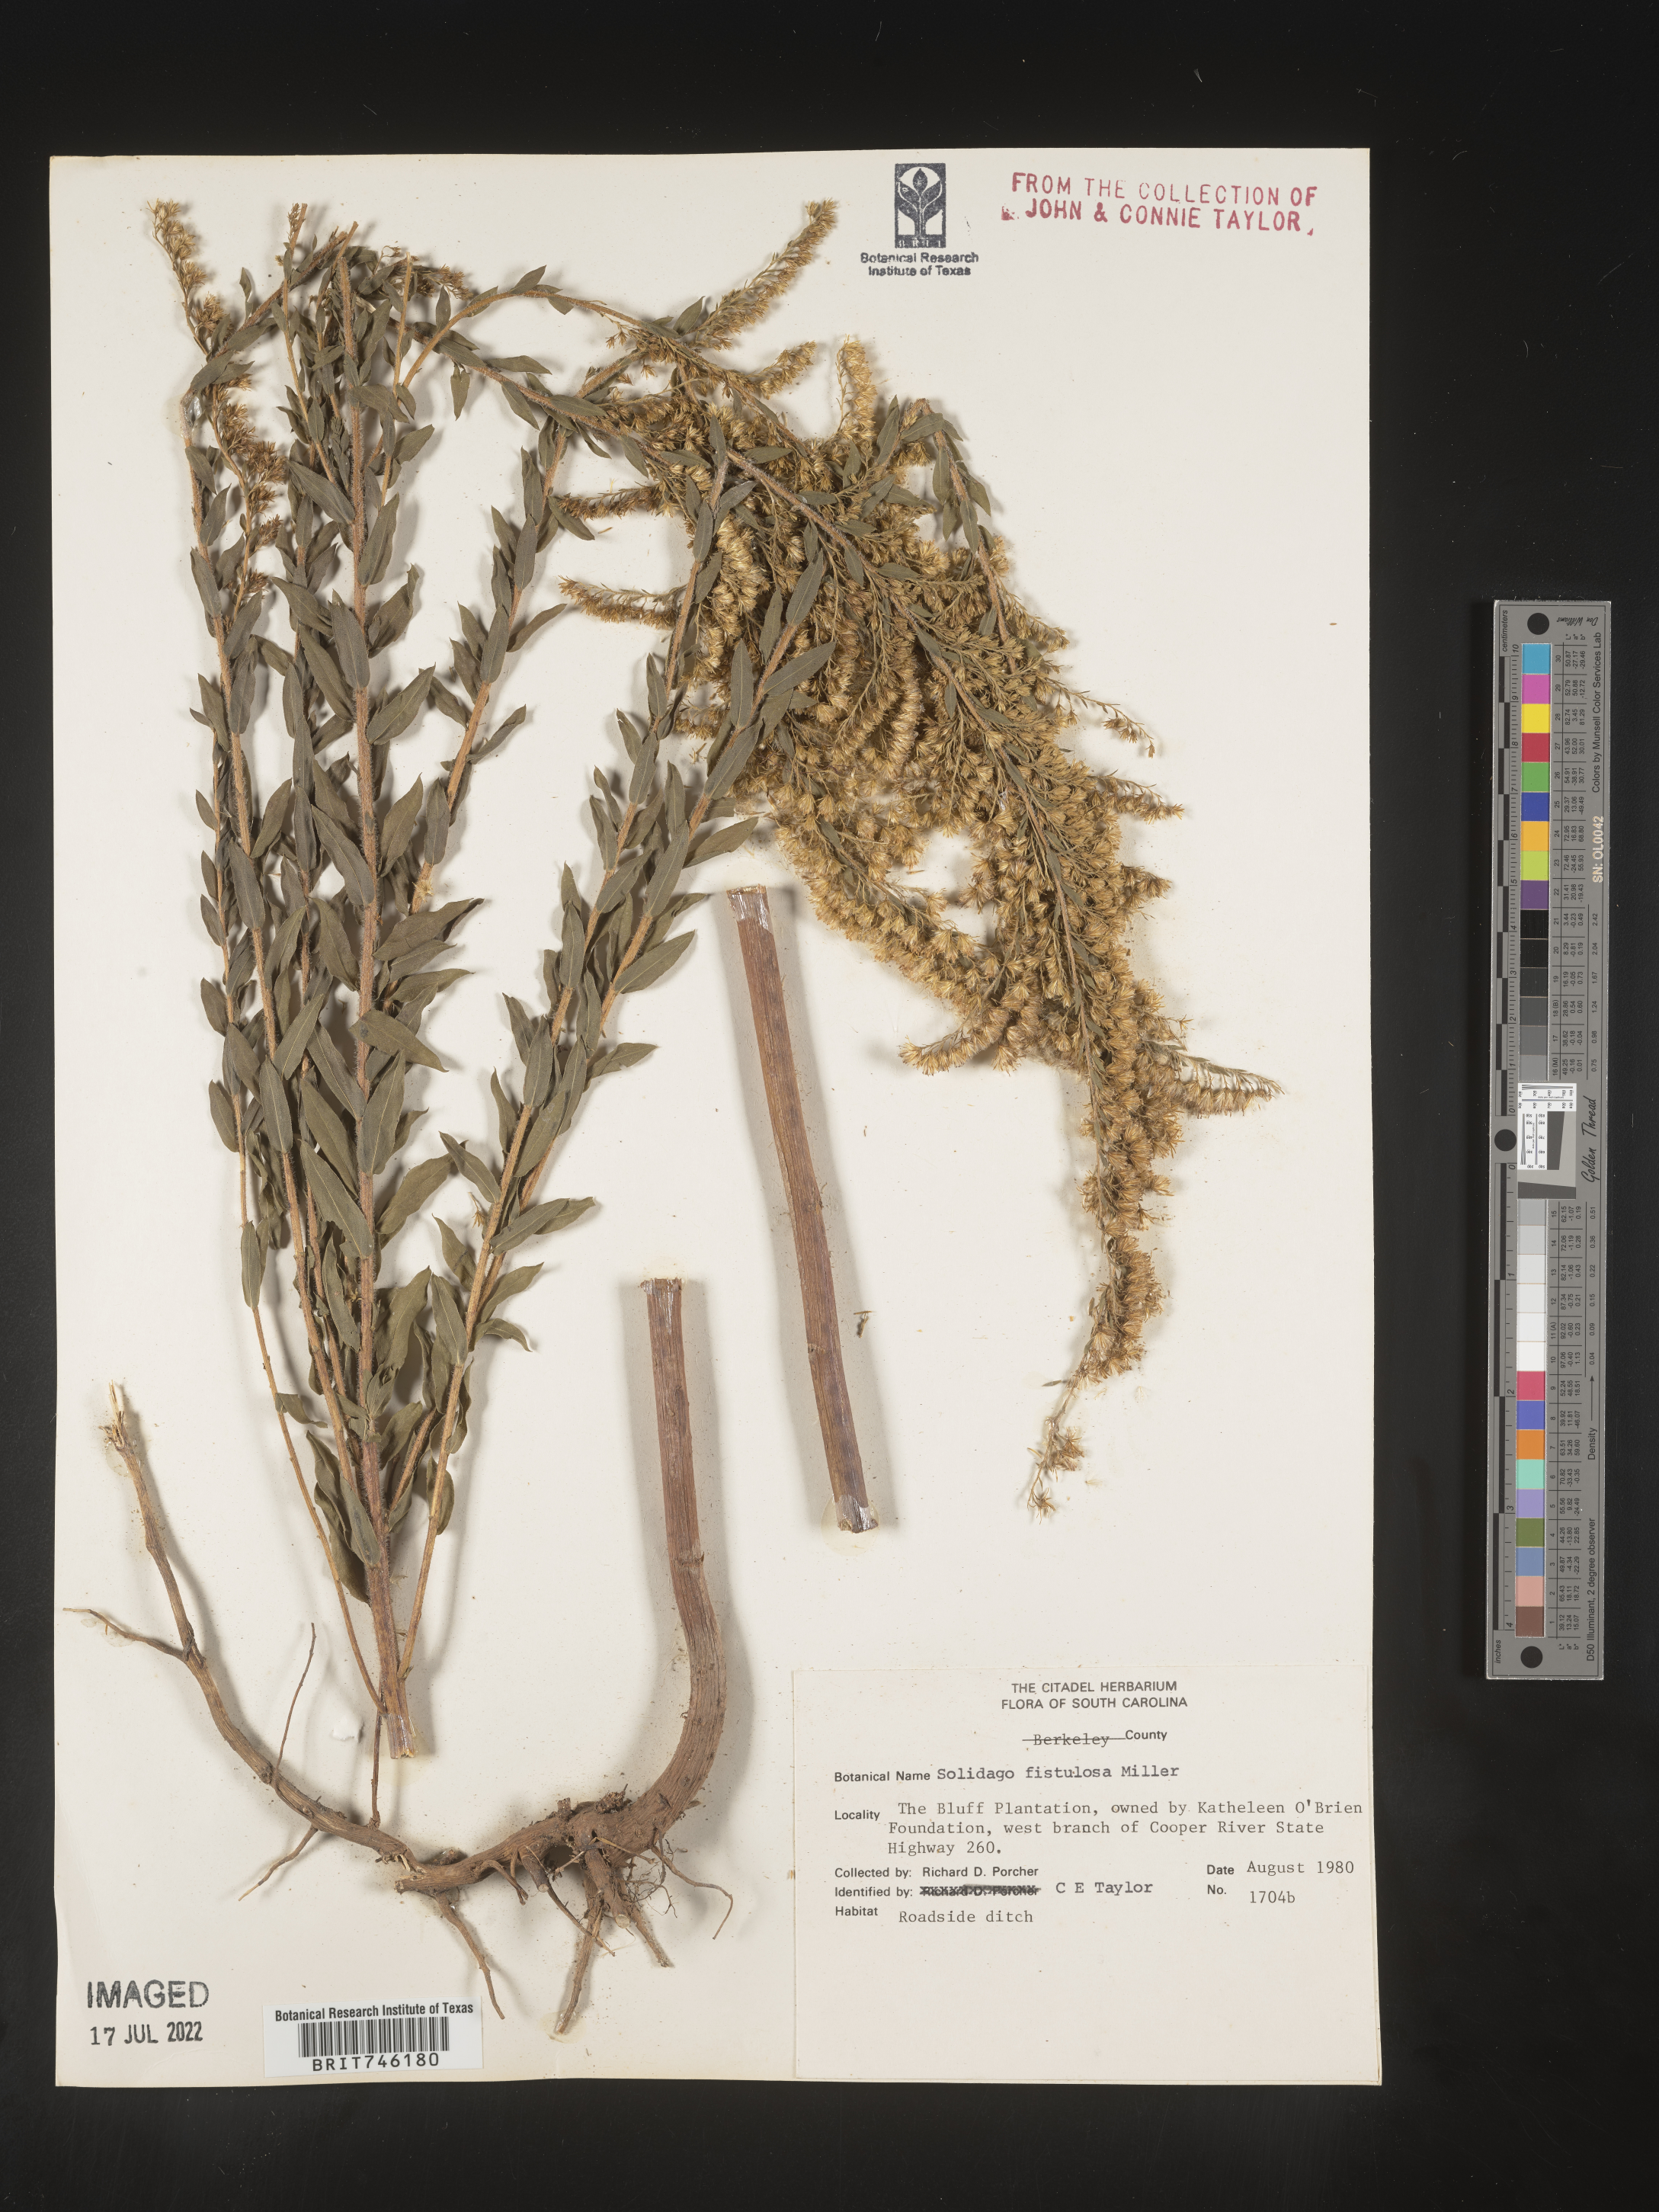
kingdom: Plantae
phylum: Tracheophyta
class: Magnoliopsida
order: Asterales
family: Asteraceae
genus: Solidago
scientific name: Solidago fistulosa
